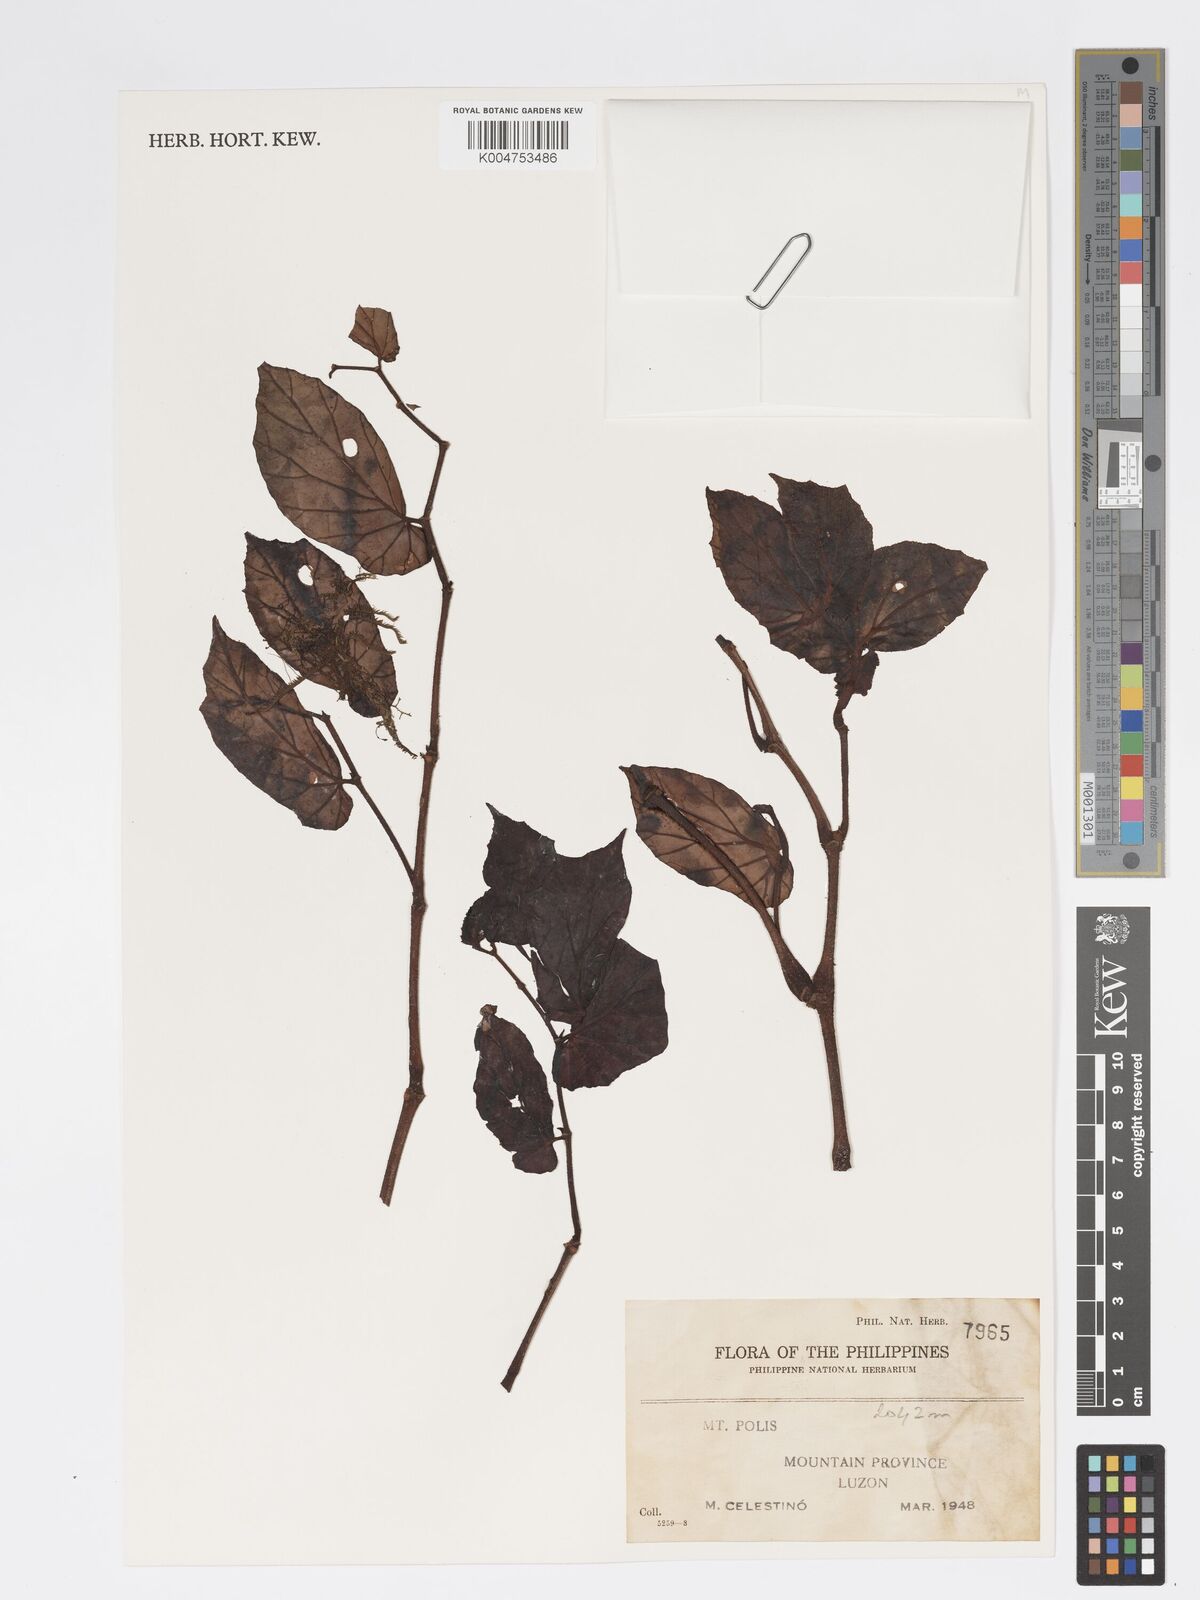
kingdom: Plantae
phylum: Tracheophyta
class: Magnoliopsida
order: Cucurbitales
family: Begoniaceae
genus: Begonia
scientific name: Begonia
